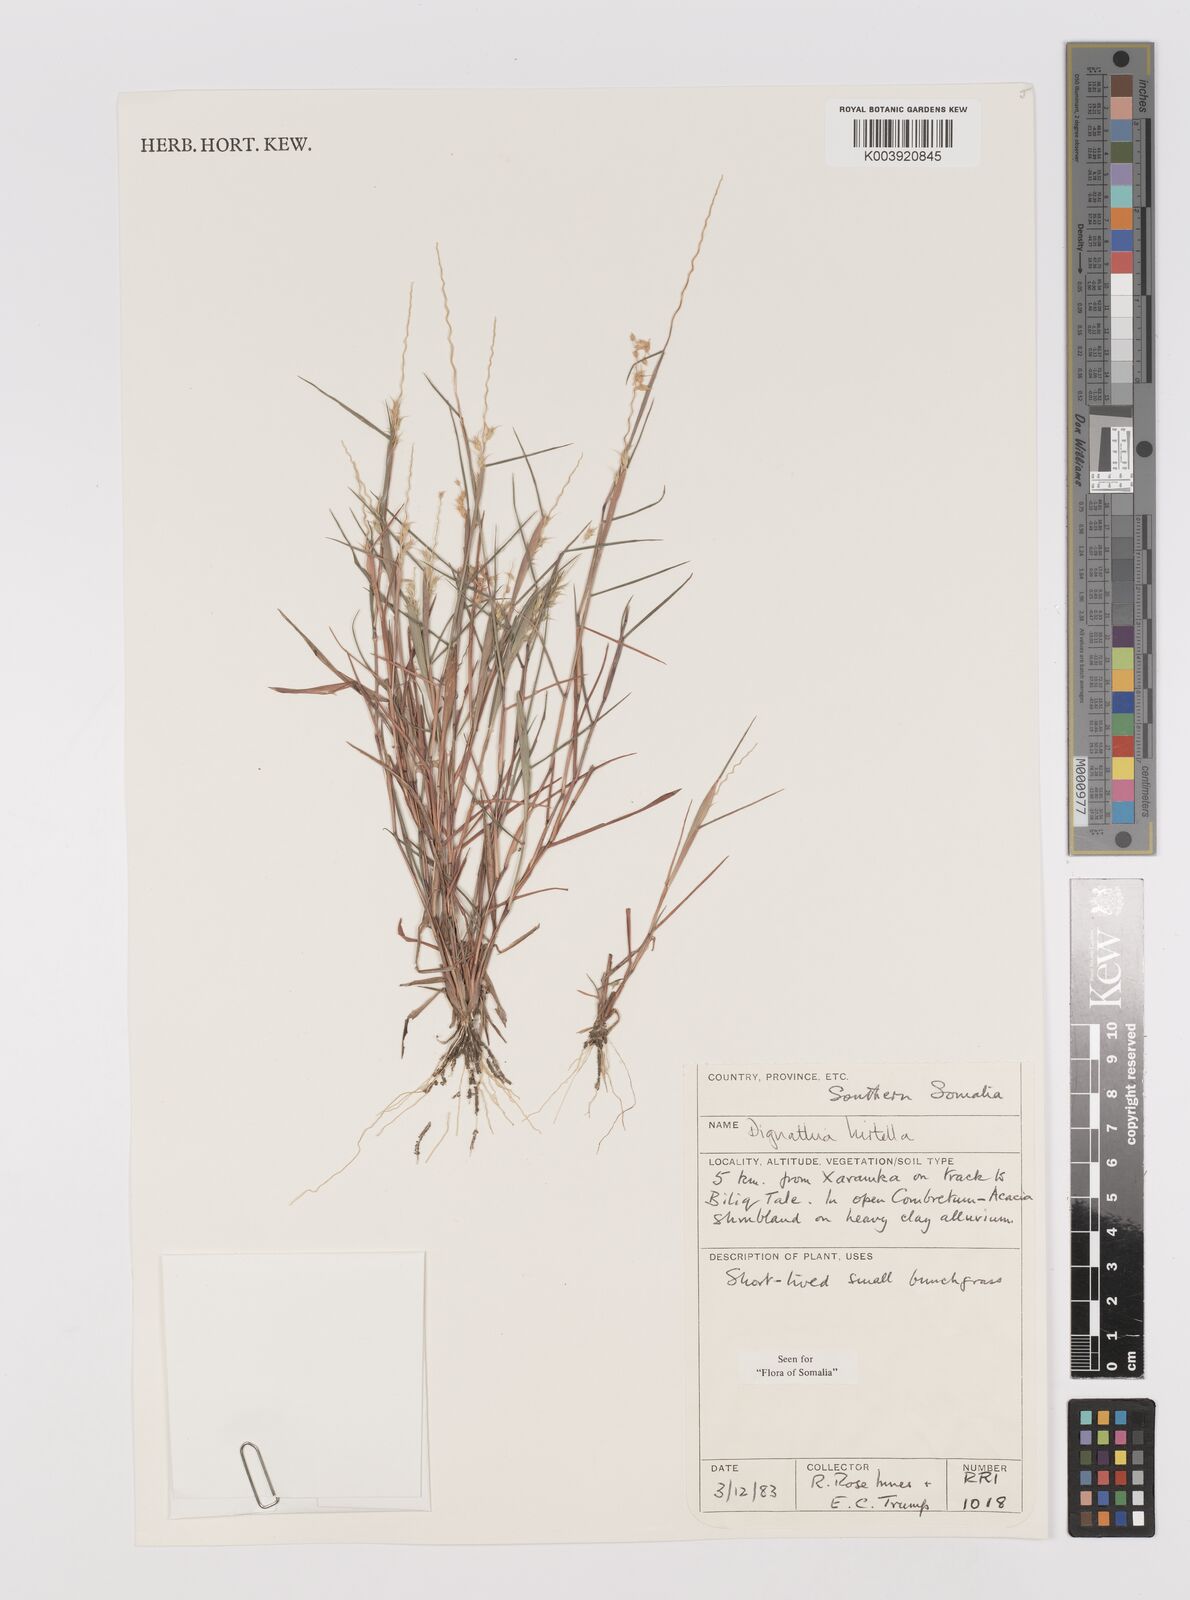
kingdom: Plantae
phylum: Tracheophyta
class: Liliopsida
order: Poales
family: Poaceae
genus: Dignathia
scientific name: Dignathia hirtella
